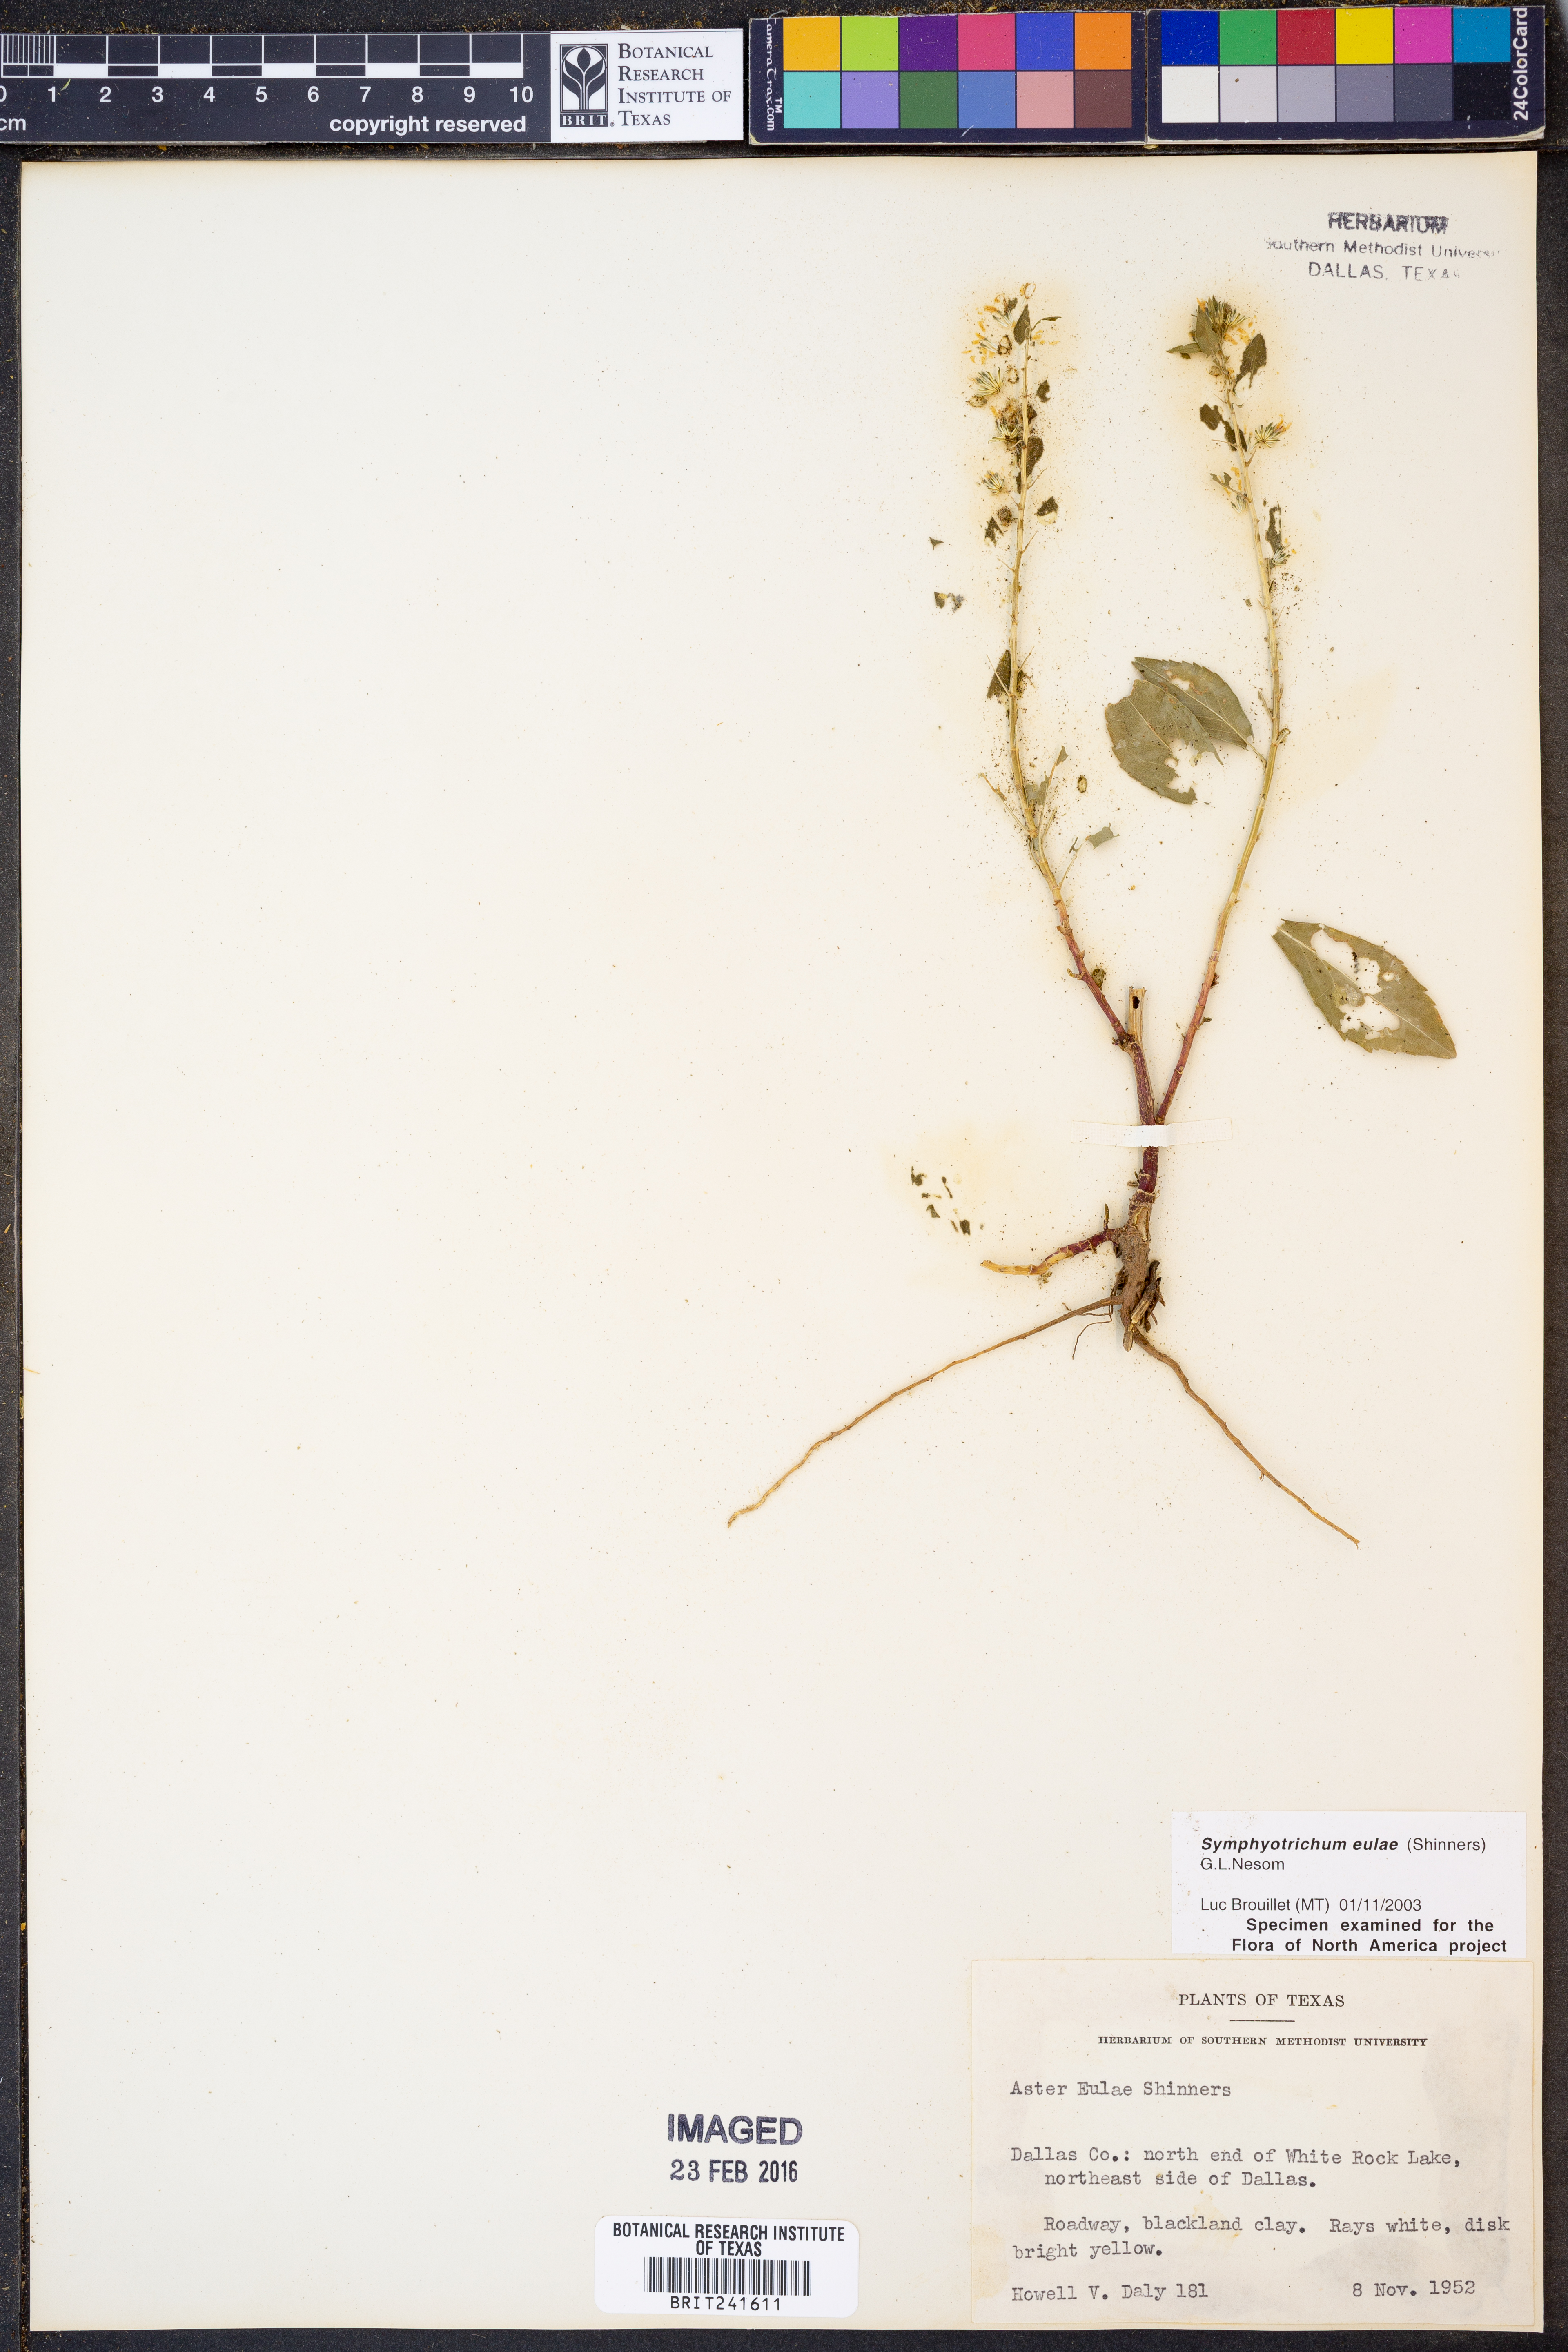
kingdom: Plantae
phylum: Tracheophyta
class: Magnoliopsida
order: Asterales
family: Asteraceae
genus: Symphyotrichum
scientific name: Symphyotrichum eulae
